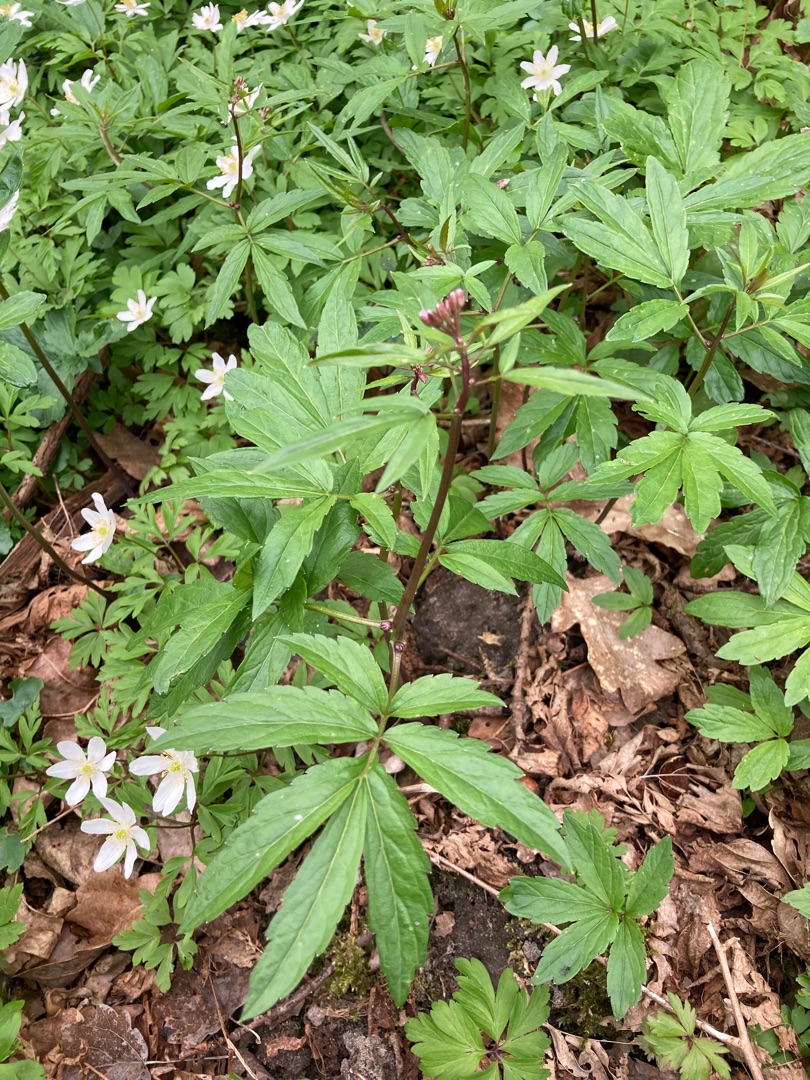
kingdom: Plantae
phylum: Tracheophyta
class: Magnoliopsida
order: Brassicales
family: Brassicaceae
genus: Cardamine
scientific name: Cardamine bulbifera
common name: Tandrod
